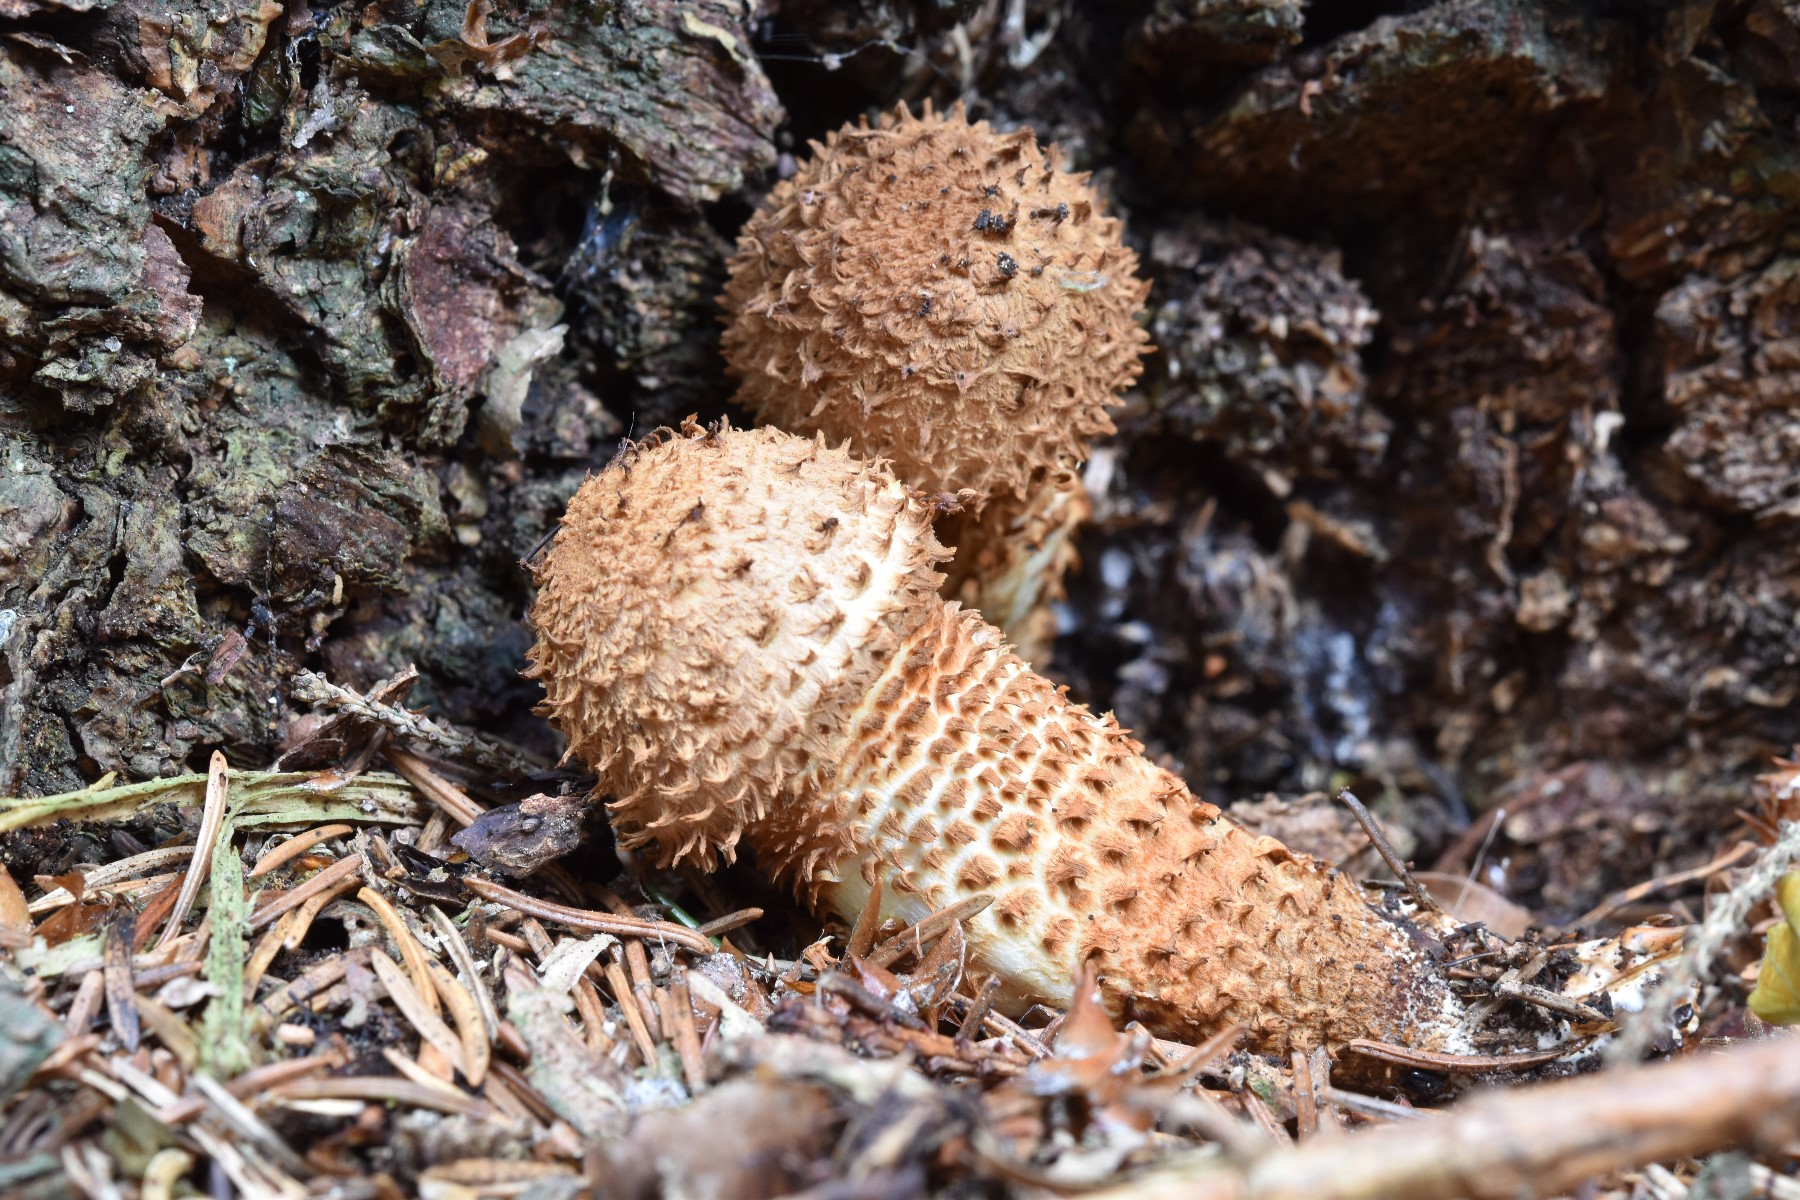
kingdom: Fungi
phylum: Basidiomycota
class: Agaricomycetes
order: Agaricales
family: Strophariaceae
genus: Pholiota
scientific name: Pholiota squarrosa
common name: krumskællet skælhat
